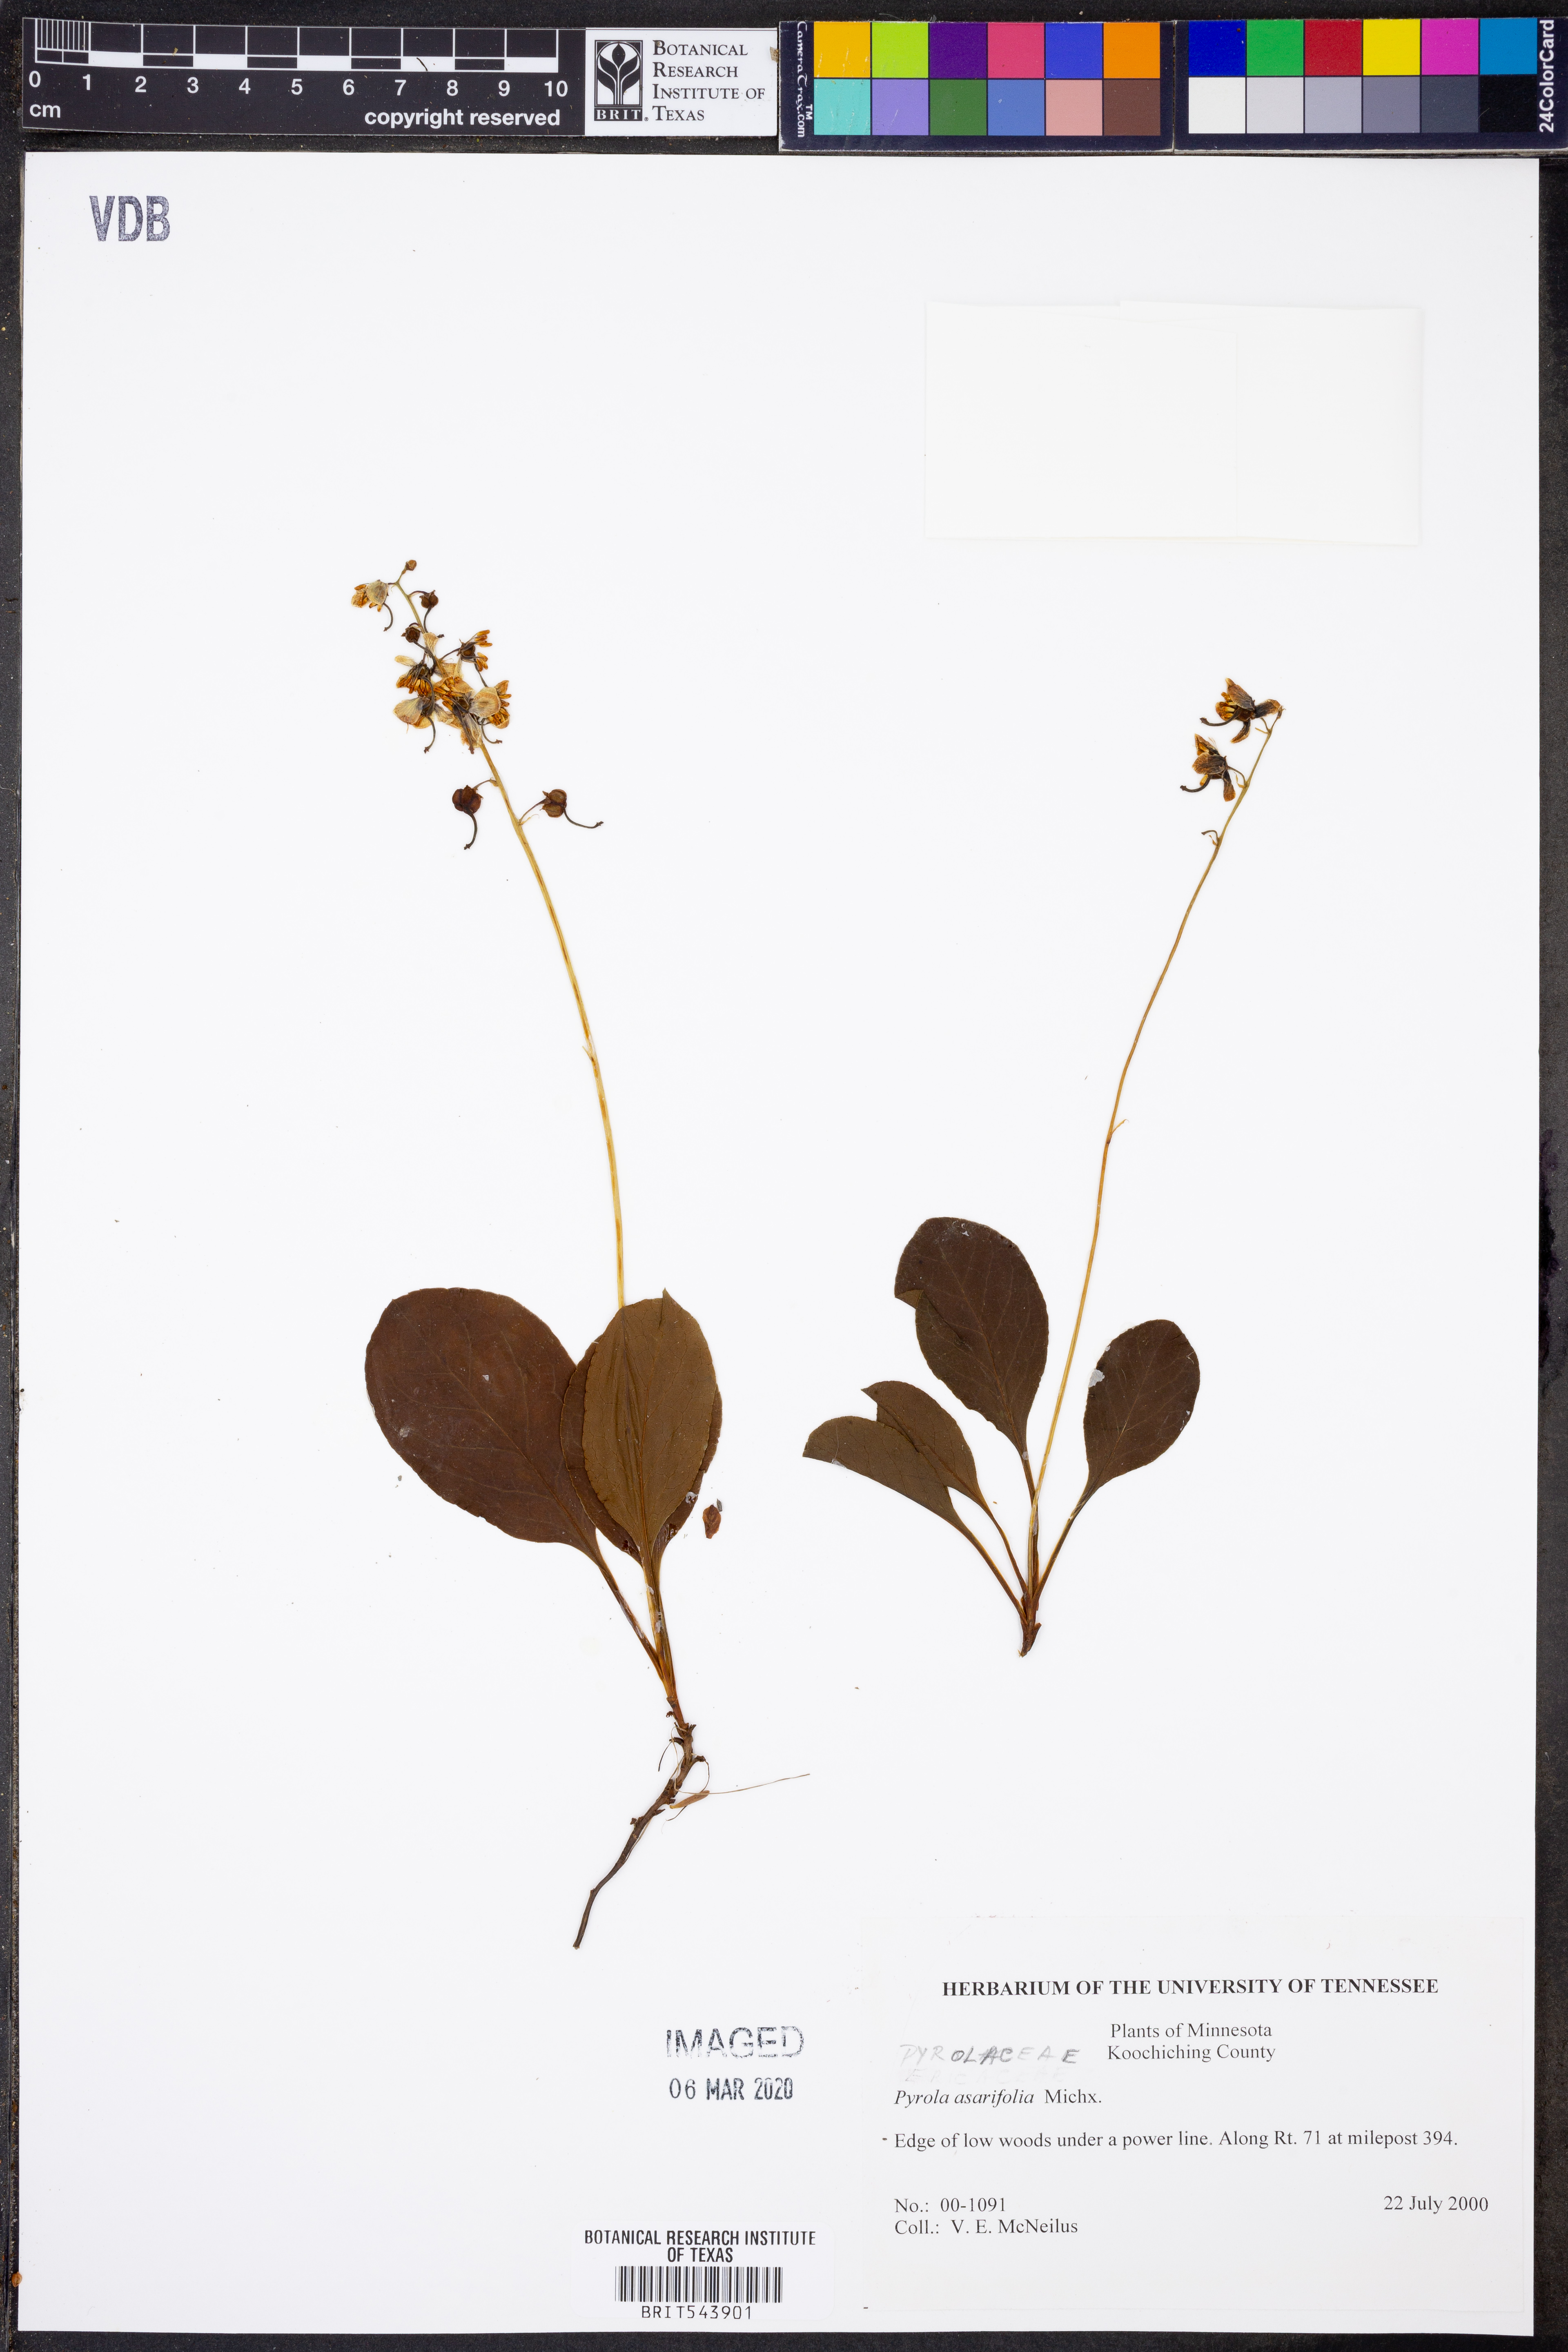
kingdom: Plantae
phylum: Tracheophyta
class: Magnoliopsida
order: Ericales
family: Ericaceae
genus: Pyrola
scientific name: Pyrola asarifolia
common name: Bog wintergreen
